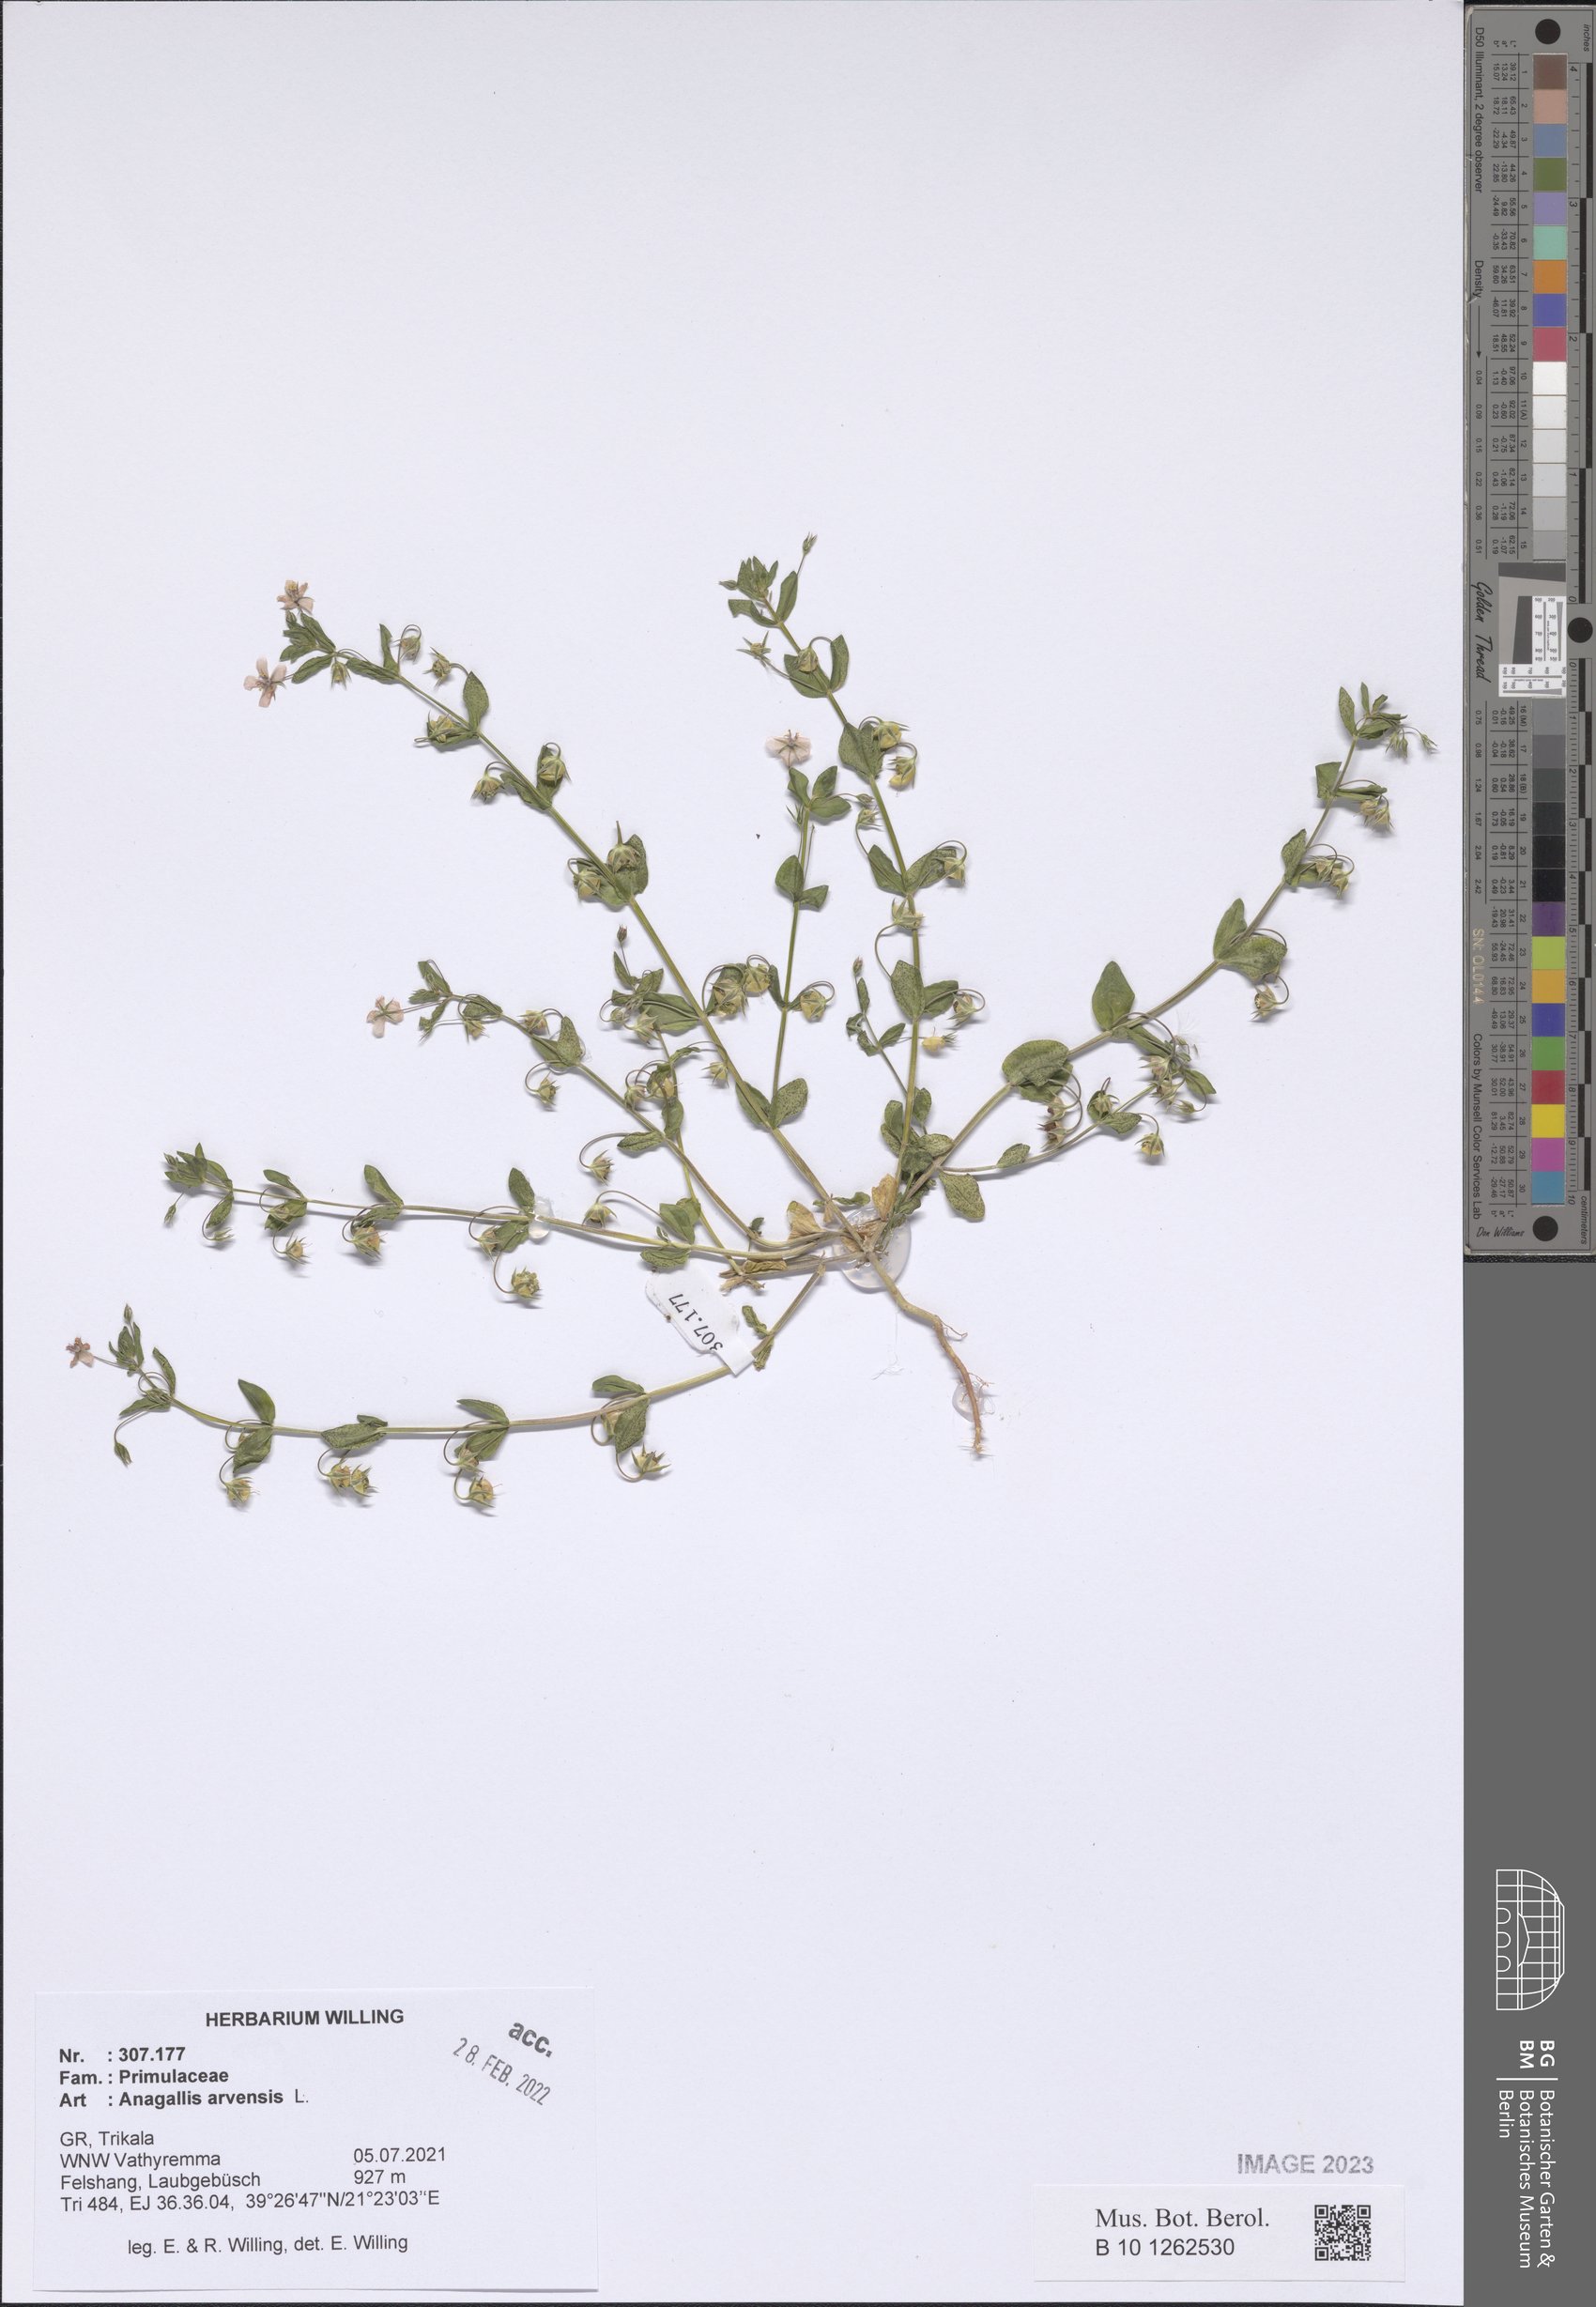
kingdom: Plantae
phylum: Tracheophyta
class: Magnoliopsida
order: Ericales
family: Primulaceae
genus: Lysimachia
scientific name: Lysimachia arvensis
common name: Scarlet pimpernel
